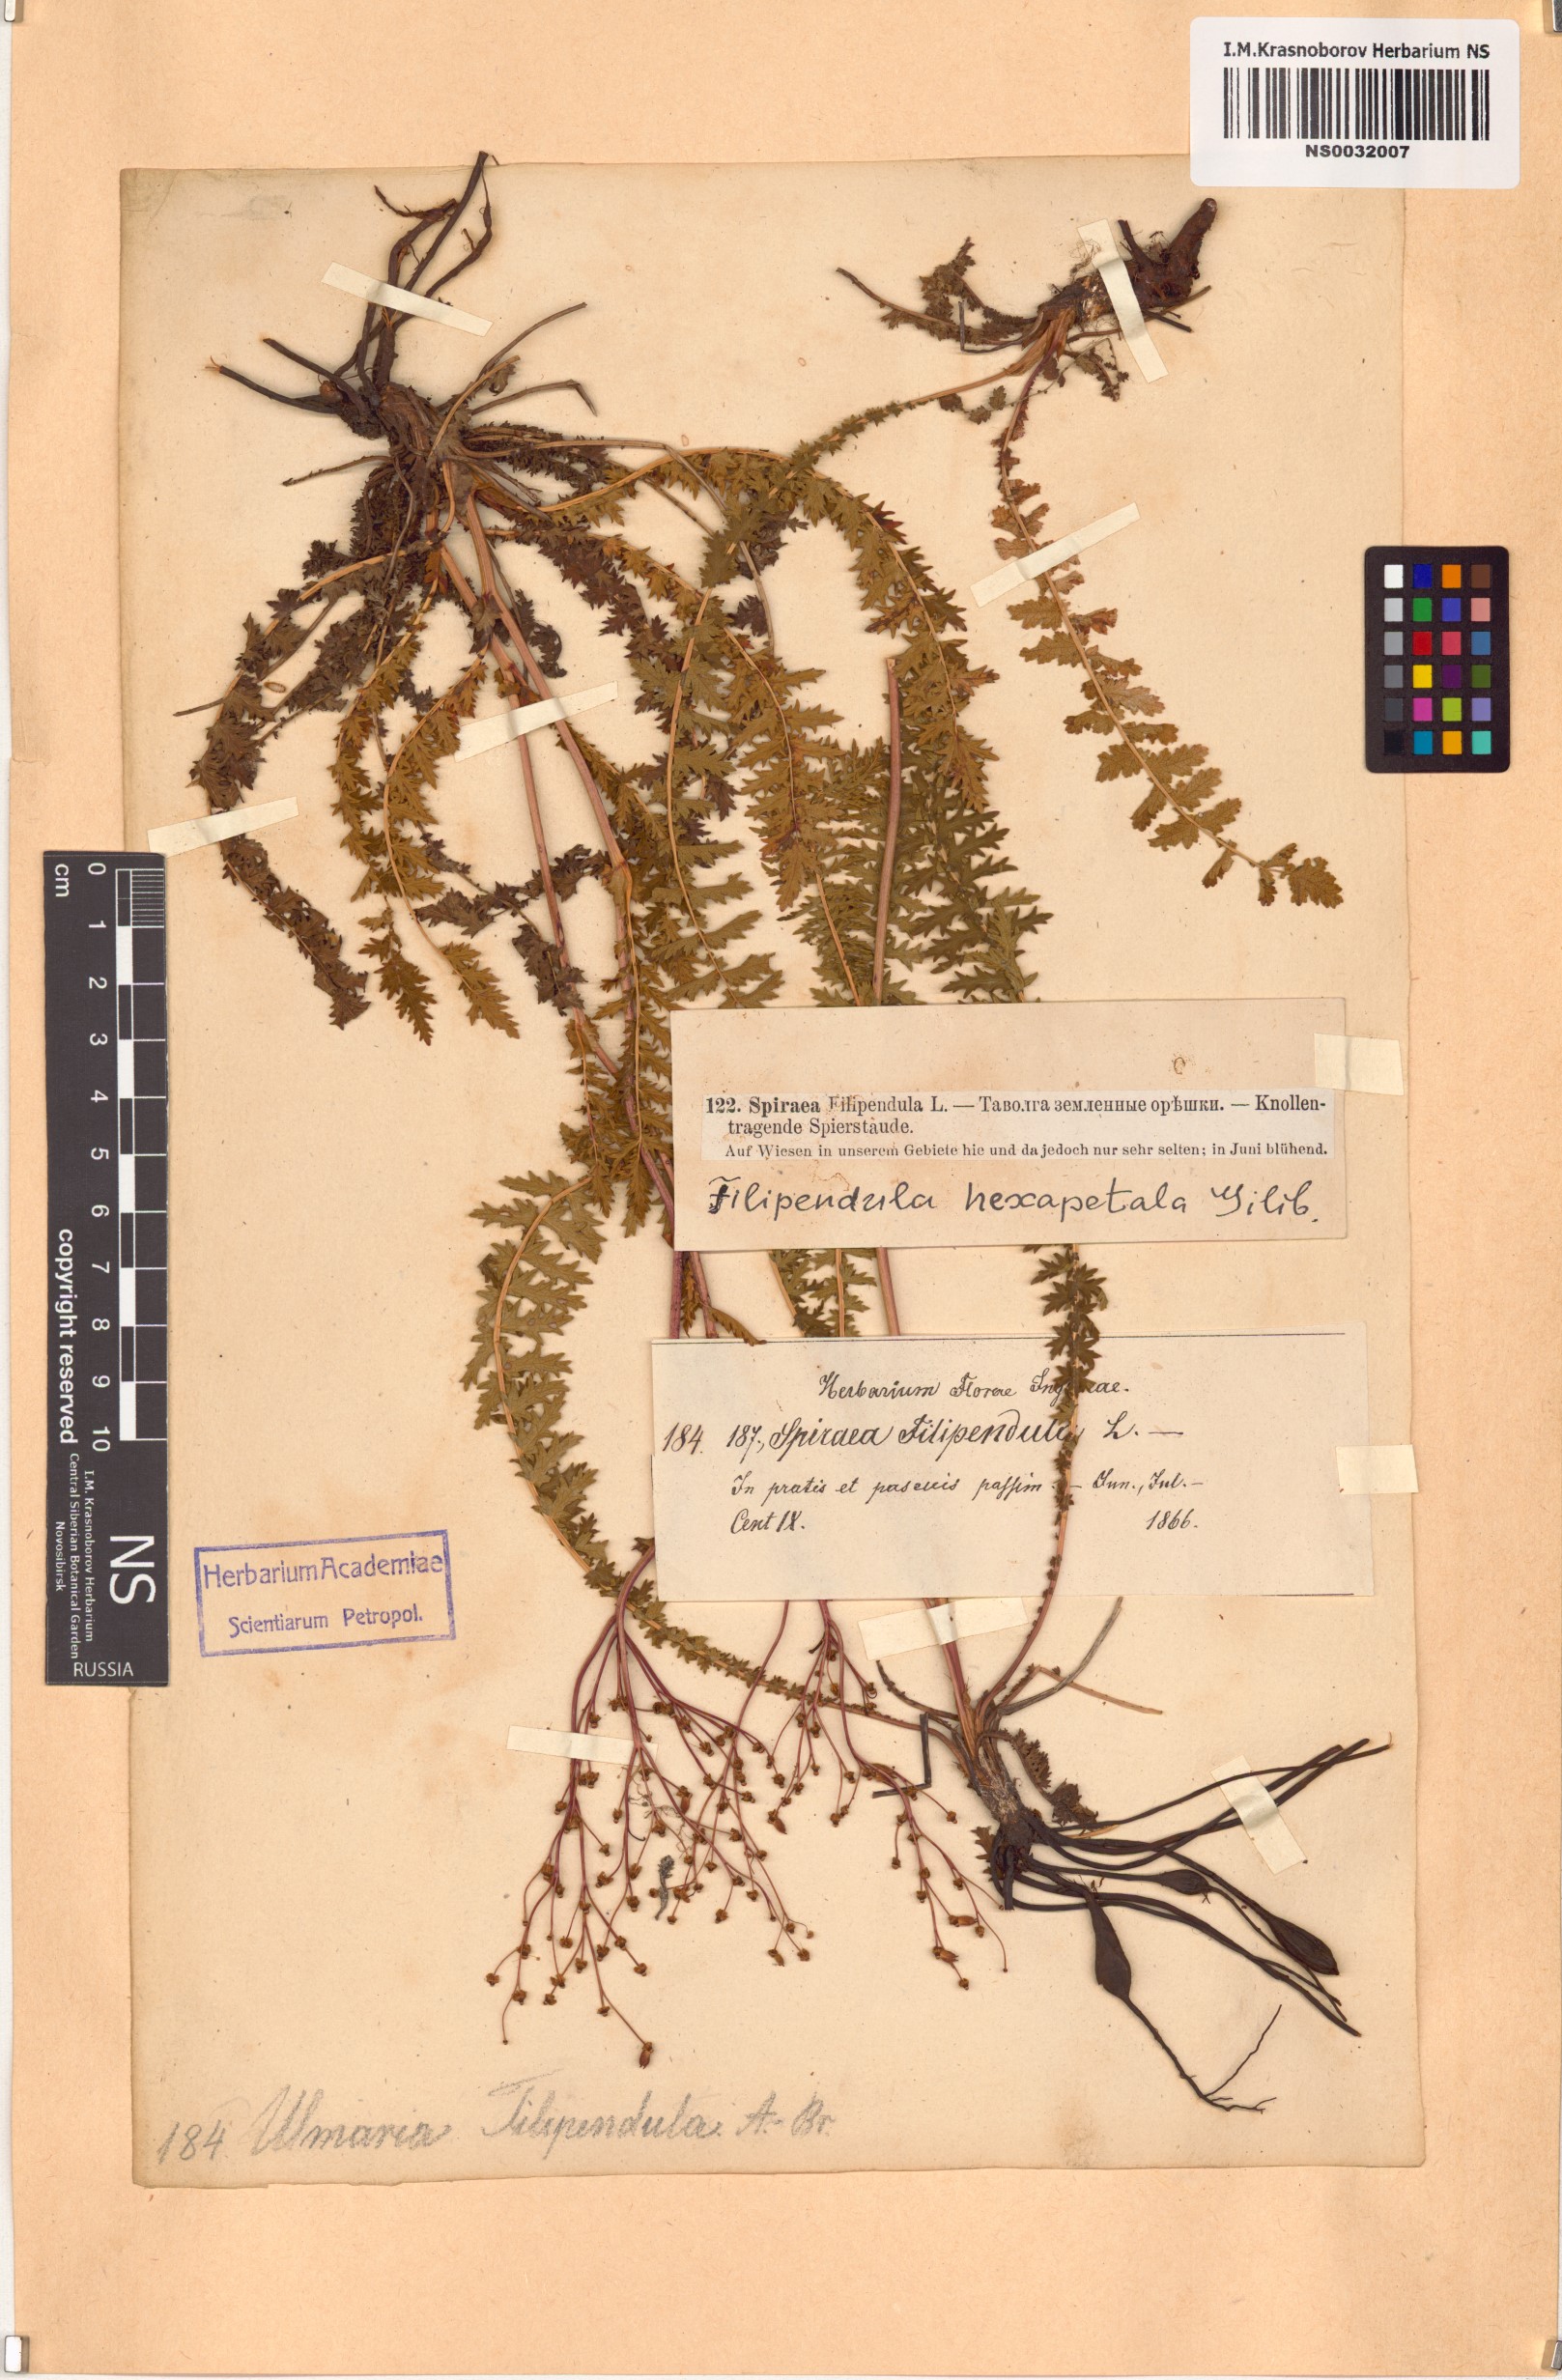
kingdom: Plantae
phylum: Tracheophyta
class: Magnoliopsida
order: Rosales
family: Rosaceae
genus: Filipendula
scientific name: Filipendula vulgaris
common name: Dropwort
